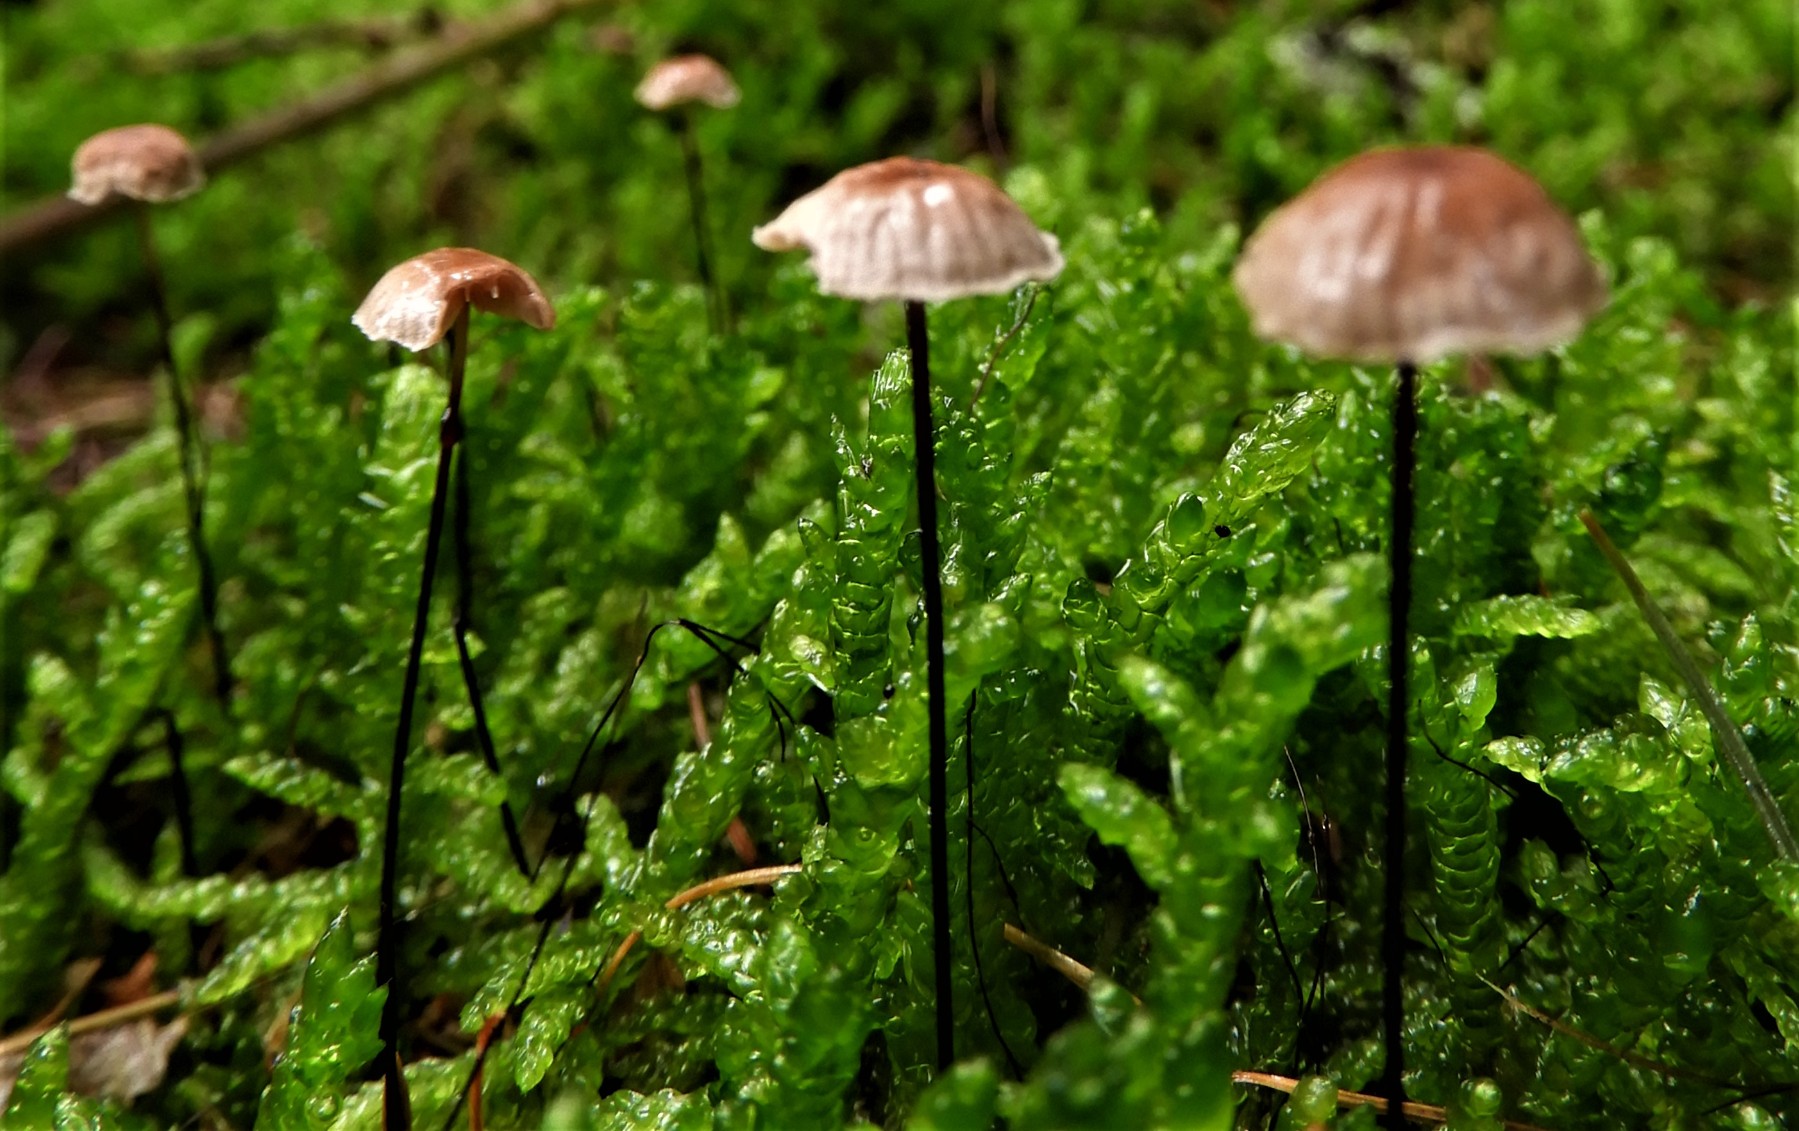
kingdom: Fungi
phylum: Basidiomycota
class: Agaricomycetes
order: Agaricales
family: Omphalotaceae
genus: Gymnopus
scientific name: Gymnopus androsaceus
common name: trådstokket fladhat
